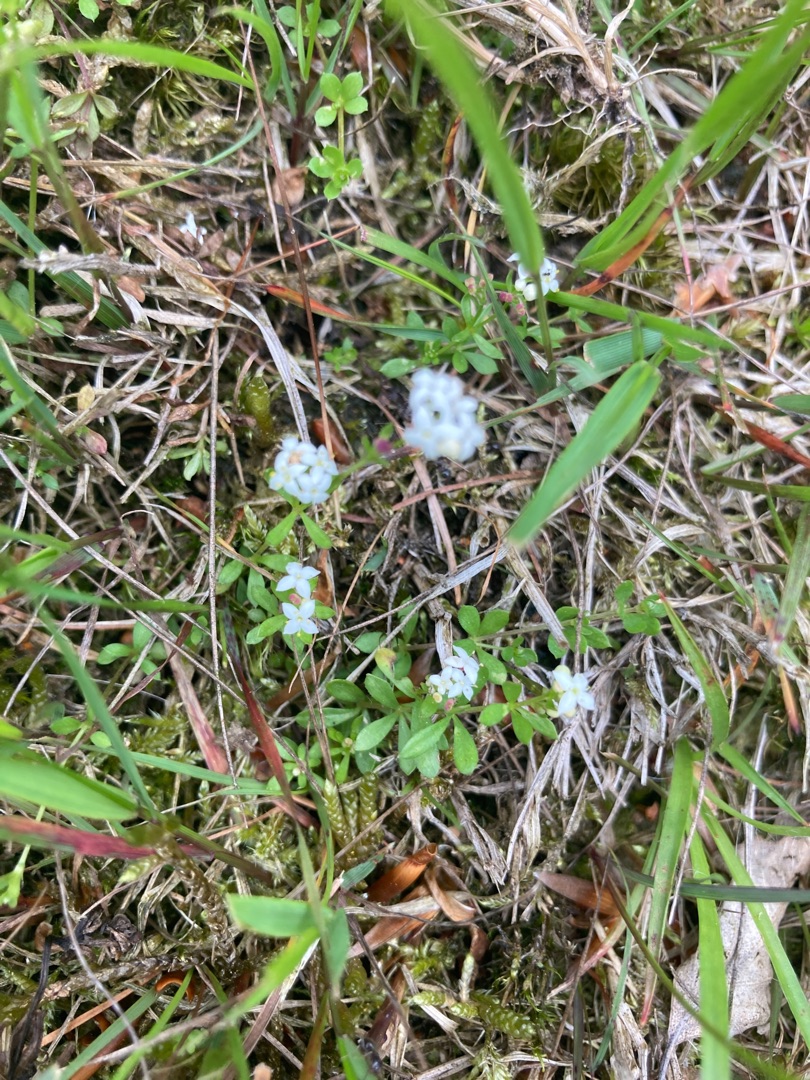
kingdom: Plantae
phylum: Tracheophyta
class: Magnoliopsida
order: Gentianales
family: Rubiaceae
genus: Galium
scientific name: Galium saxatile
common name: Lyng-snerre
